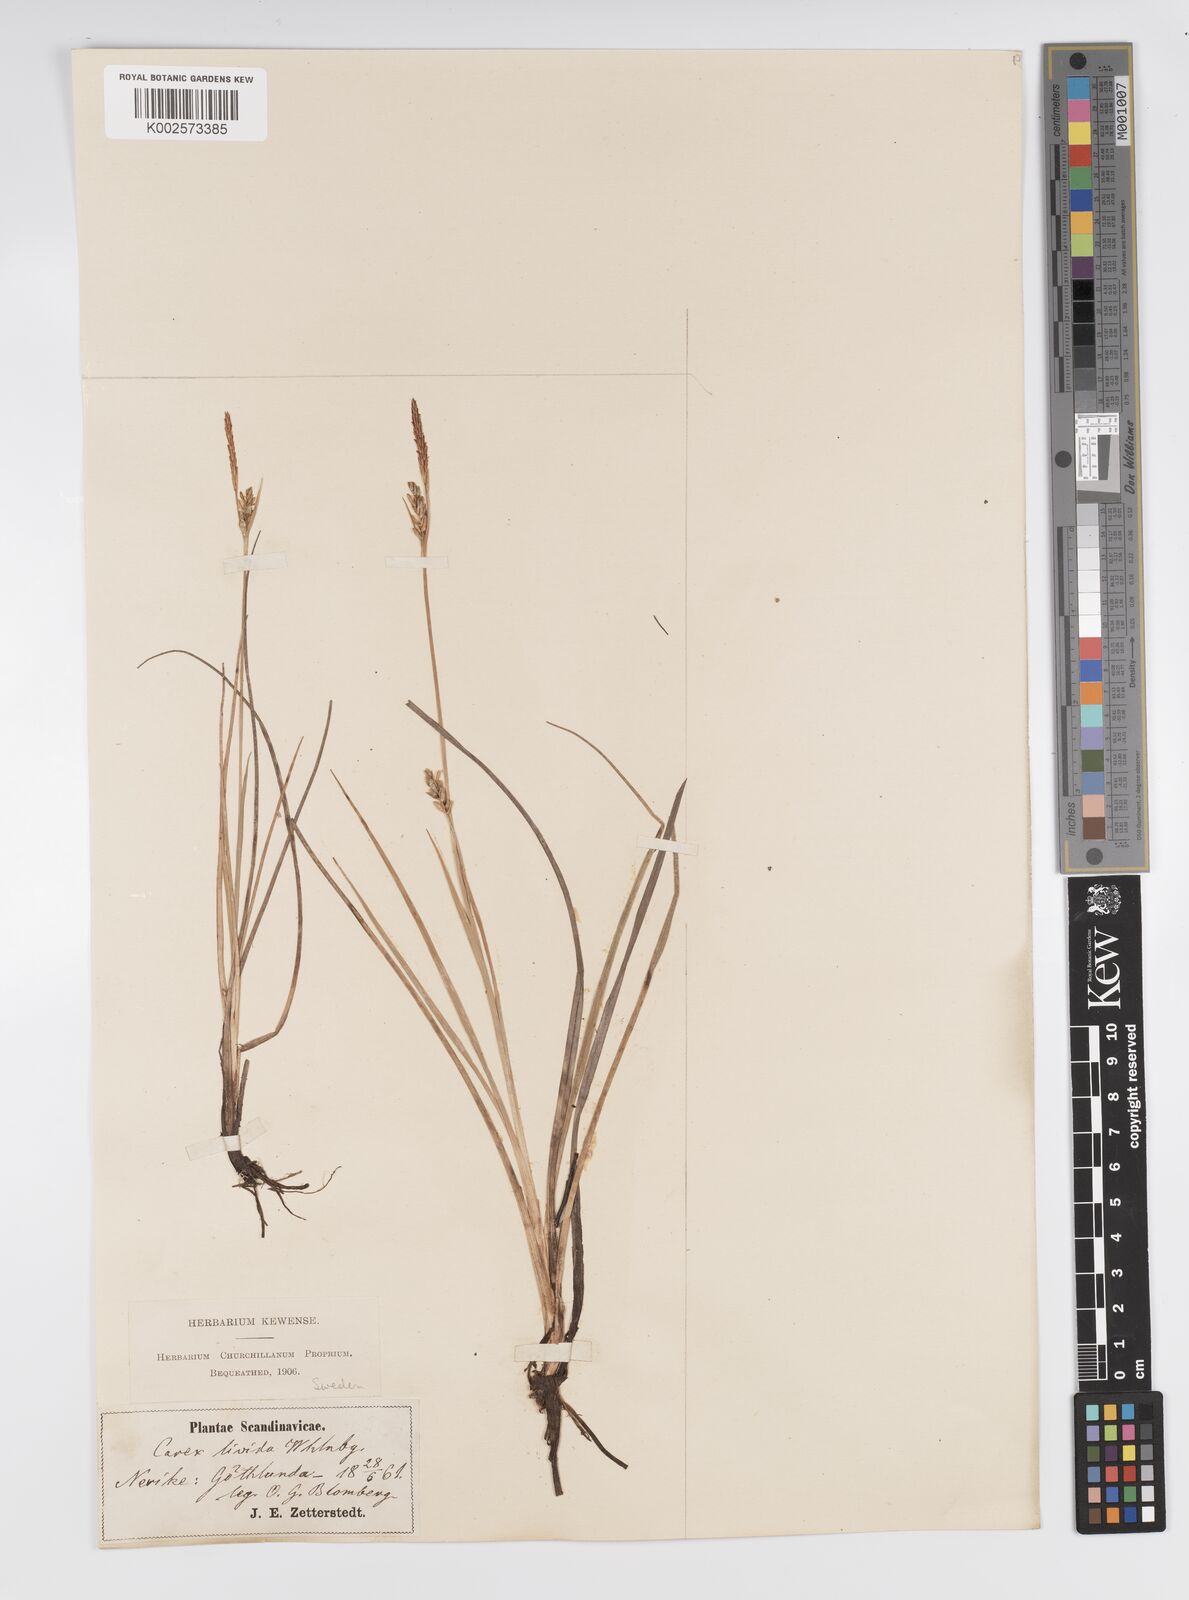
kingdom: Plantae
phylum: Tracheophyta
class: Liliopsida
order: Poales
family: Cyperaceae
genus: Carex
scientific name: Carex livida
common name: Livid sedge
